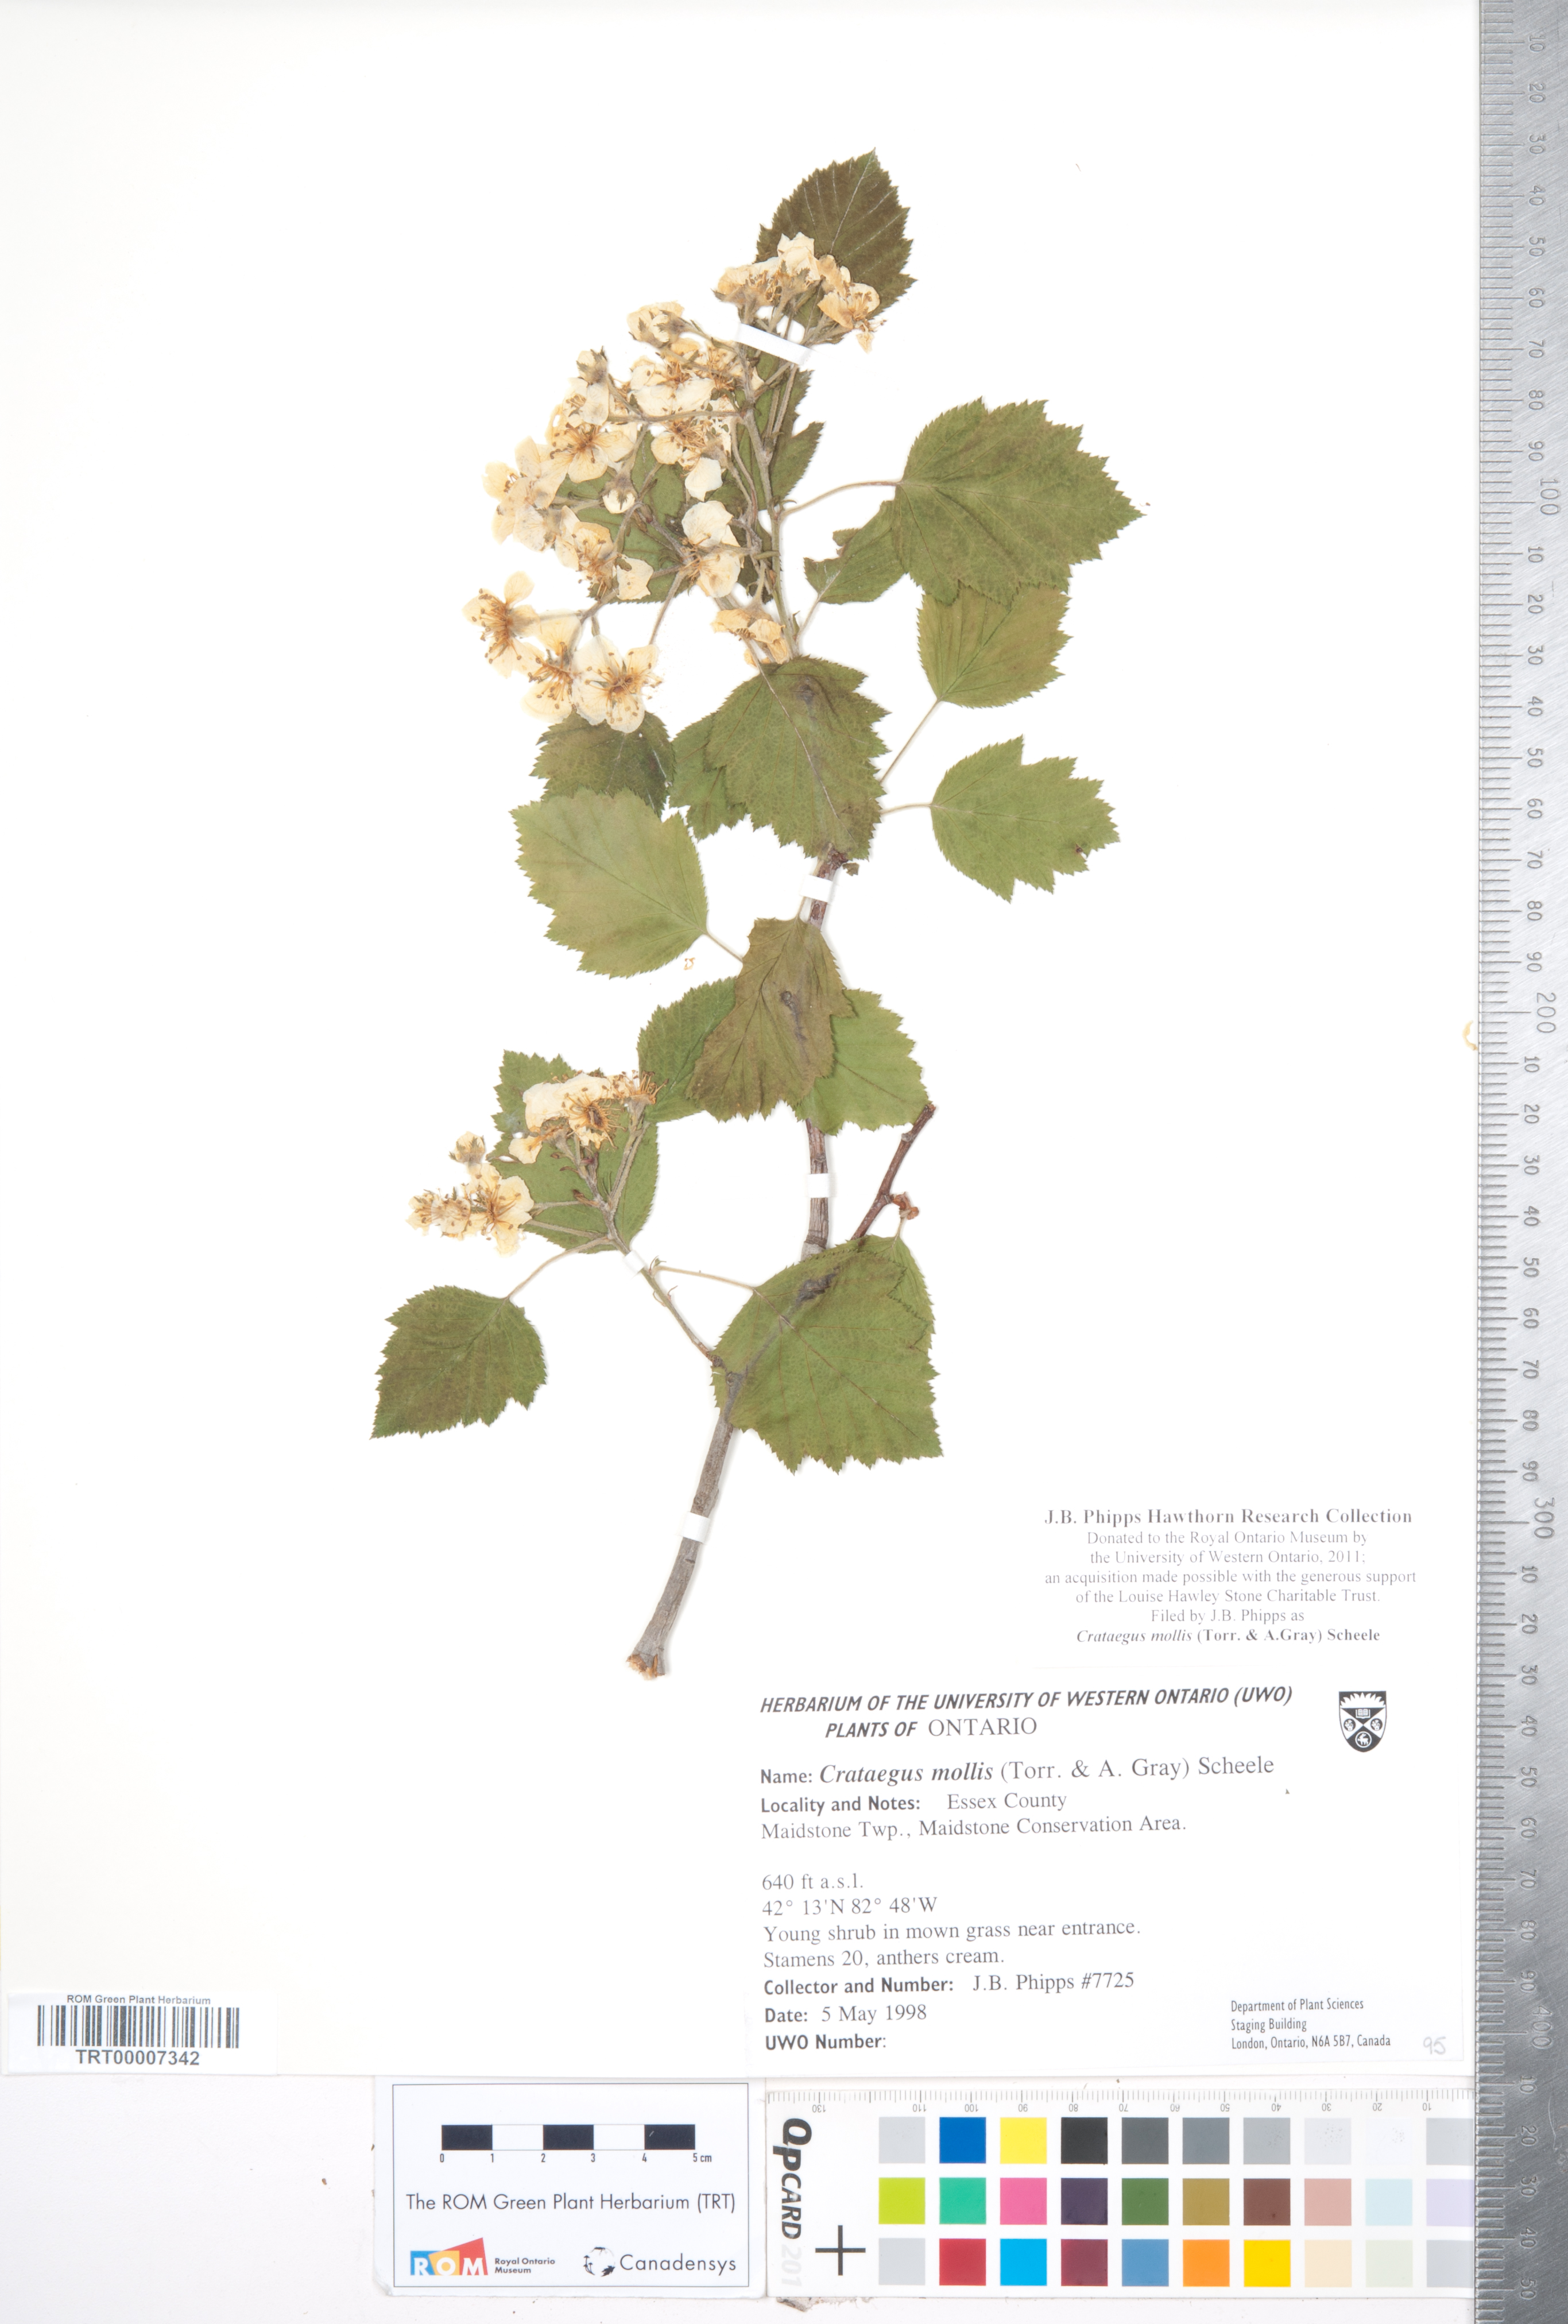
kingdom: Plantae
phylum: Tracheophyta
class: Magnoliopsida
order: Rosales
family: Rosaceae
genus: Crataegus
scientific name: Crataegus mollis
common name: Downy hawthorn
